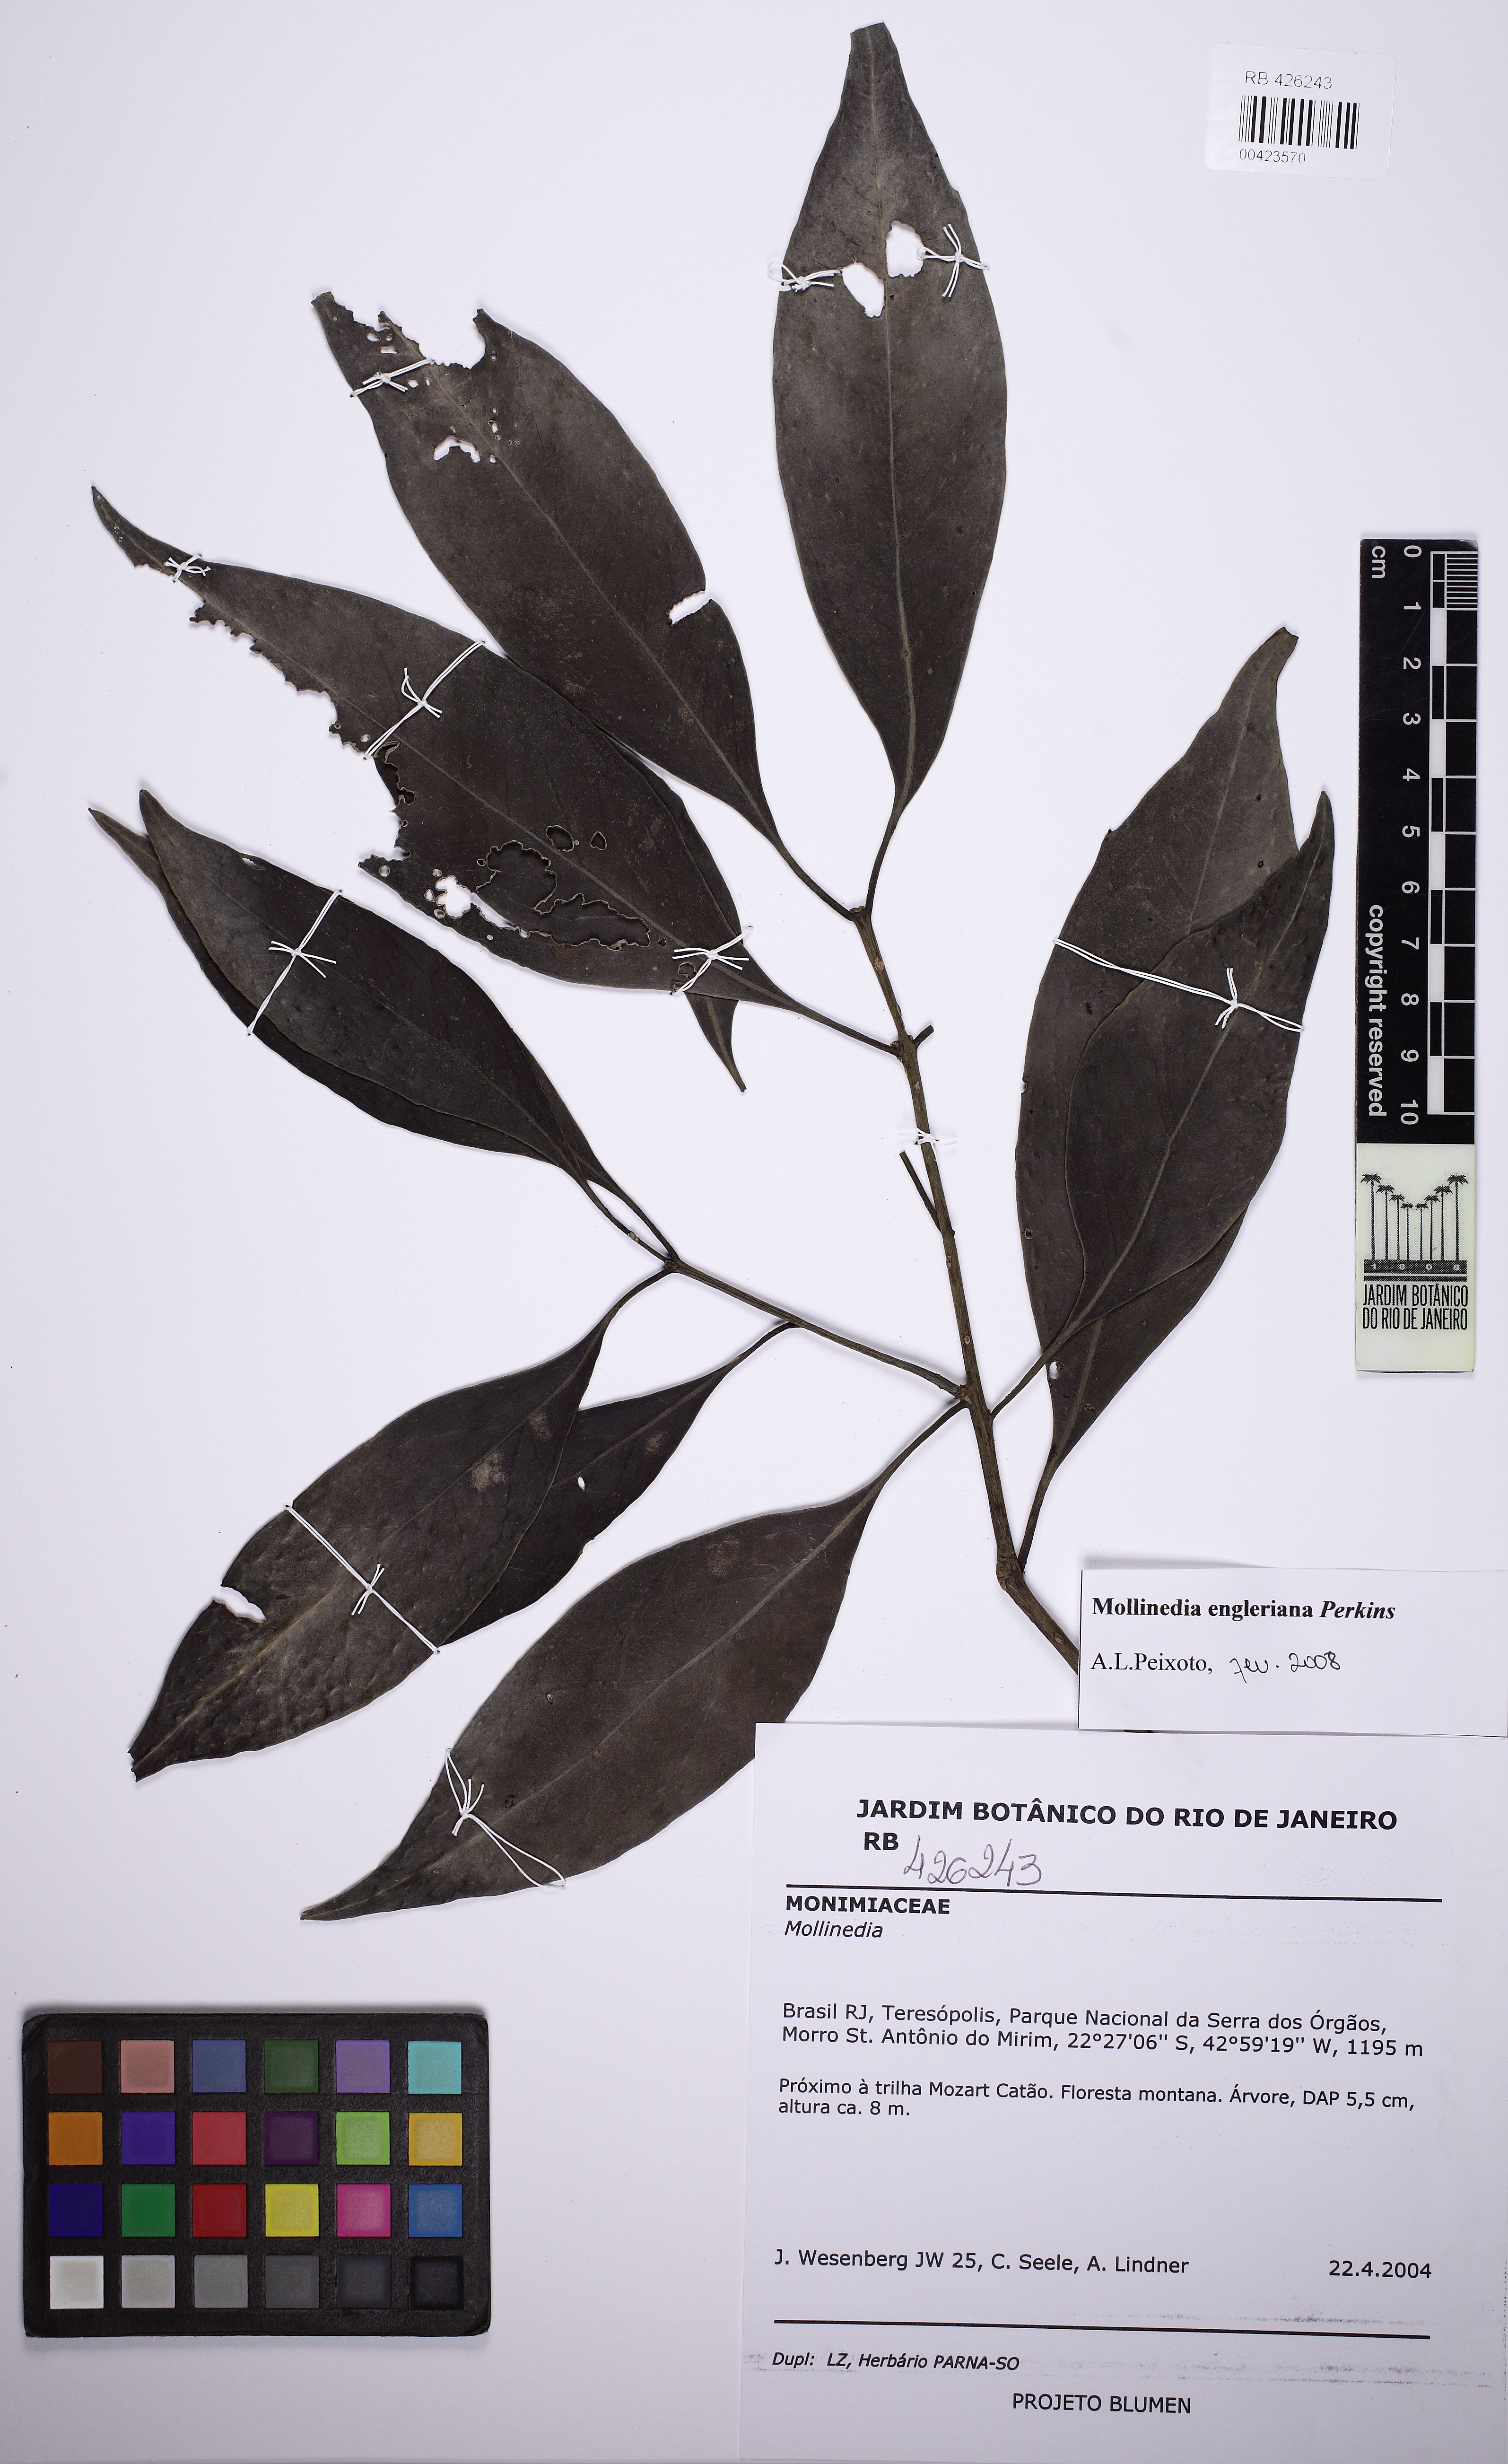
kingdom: Plantae
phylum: Tracheophyta
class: Magnoliopsida
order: Laurales
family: Monimiaceae
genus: Mollinedia
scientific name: Mollinedia engleriana
